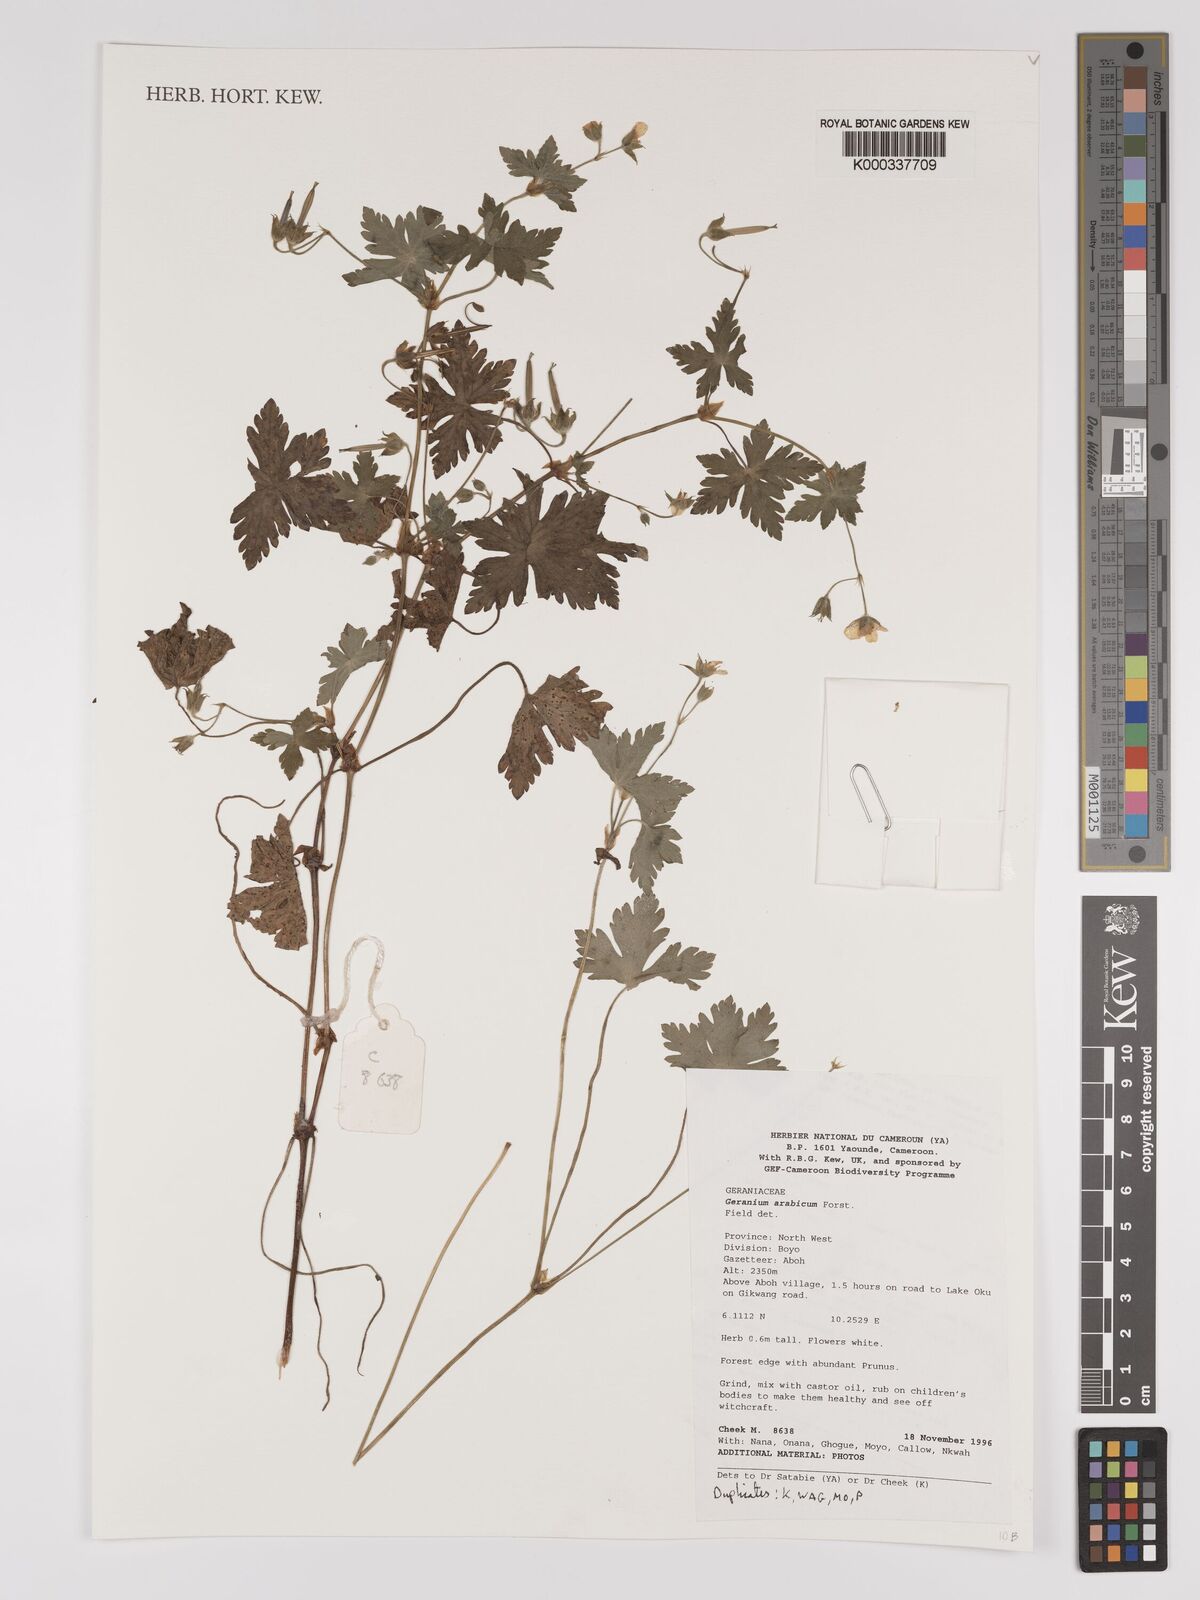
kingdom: Plantae
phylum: Tracheophyta
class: Magnoliopsida
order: Geraniales
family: Geraniaceae
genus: Geranium
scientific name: Geranium arabicum
